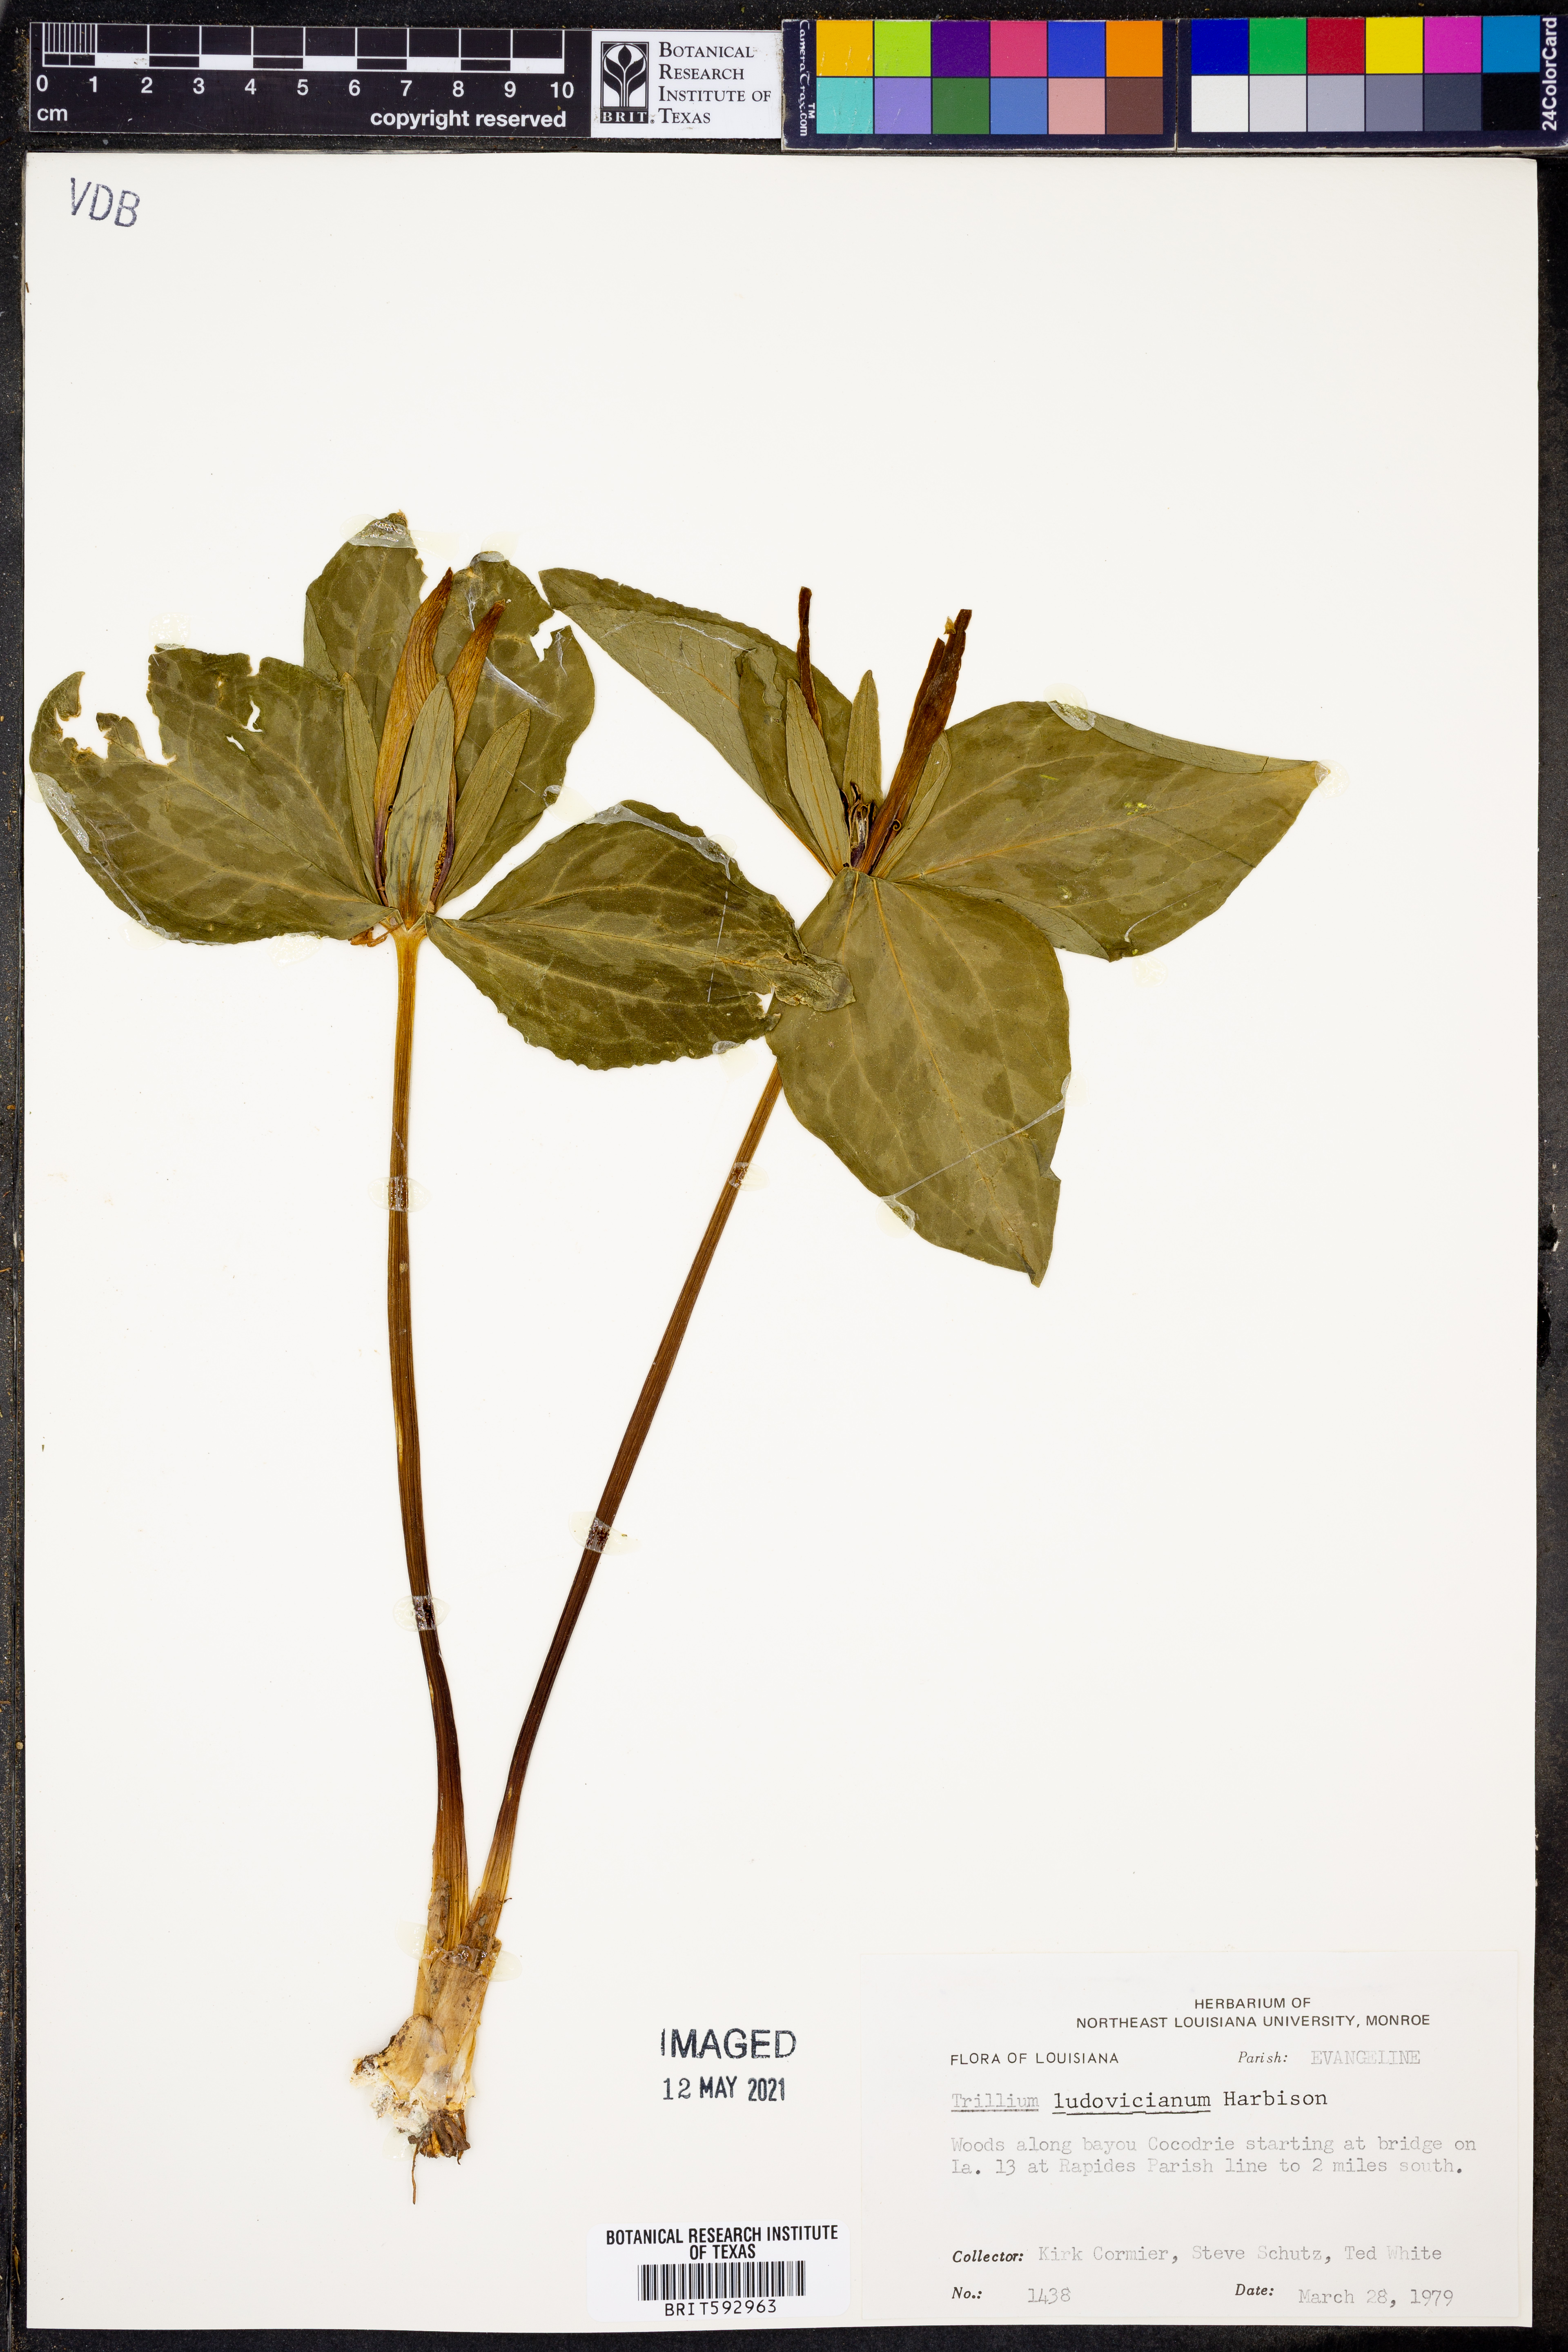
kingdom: Plantae
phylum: Tracheophyta
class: Liliopsida
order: Liliales
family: Melanthiaceae
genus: Trillium
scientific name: Trillium ludovicianum
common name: Louisiana toadshade
